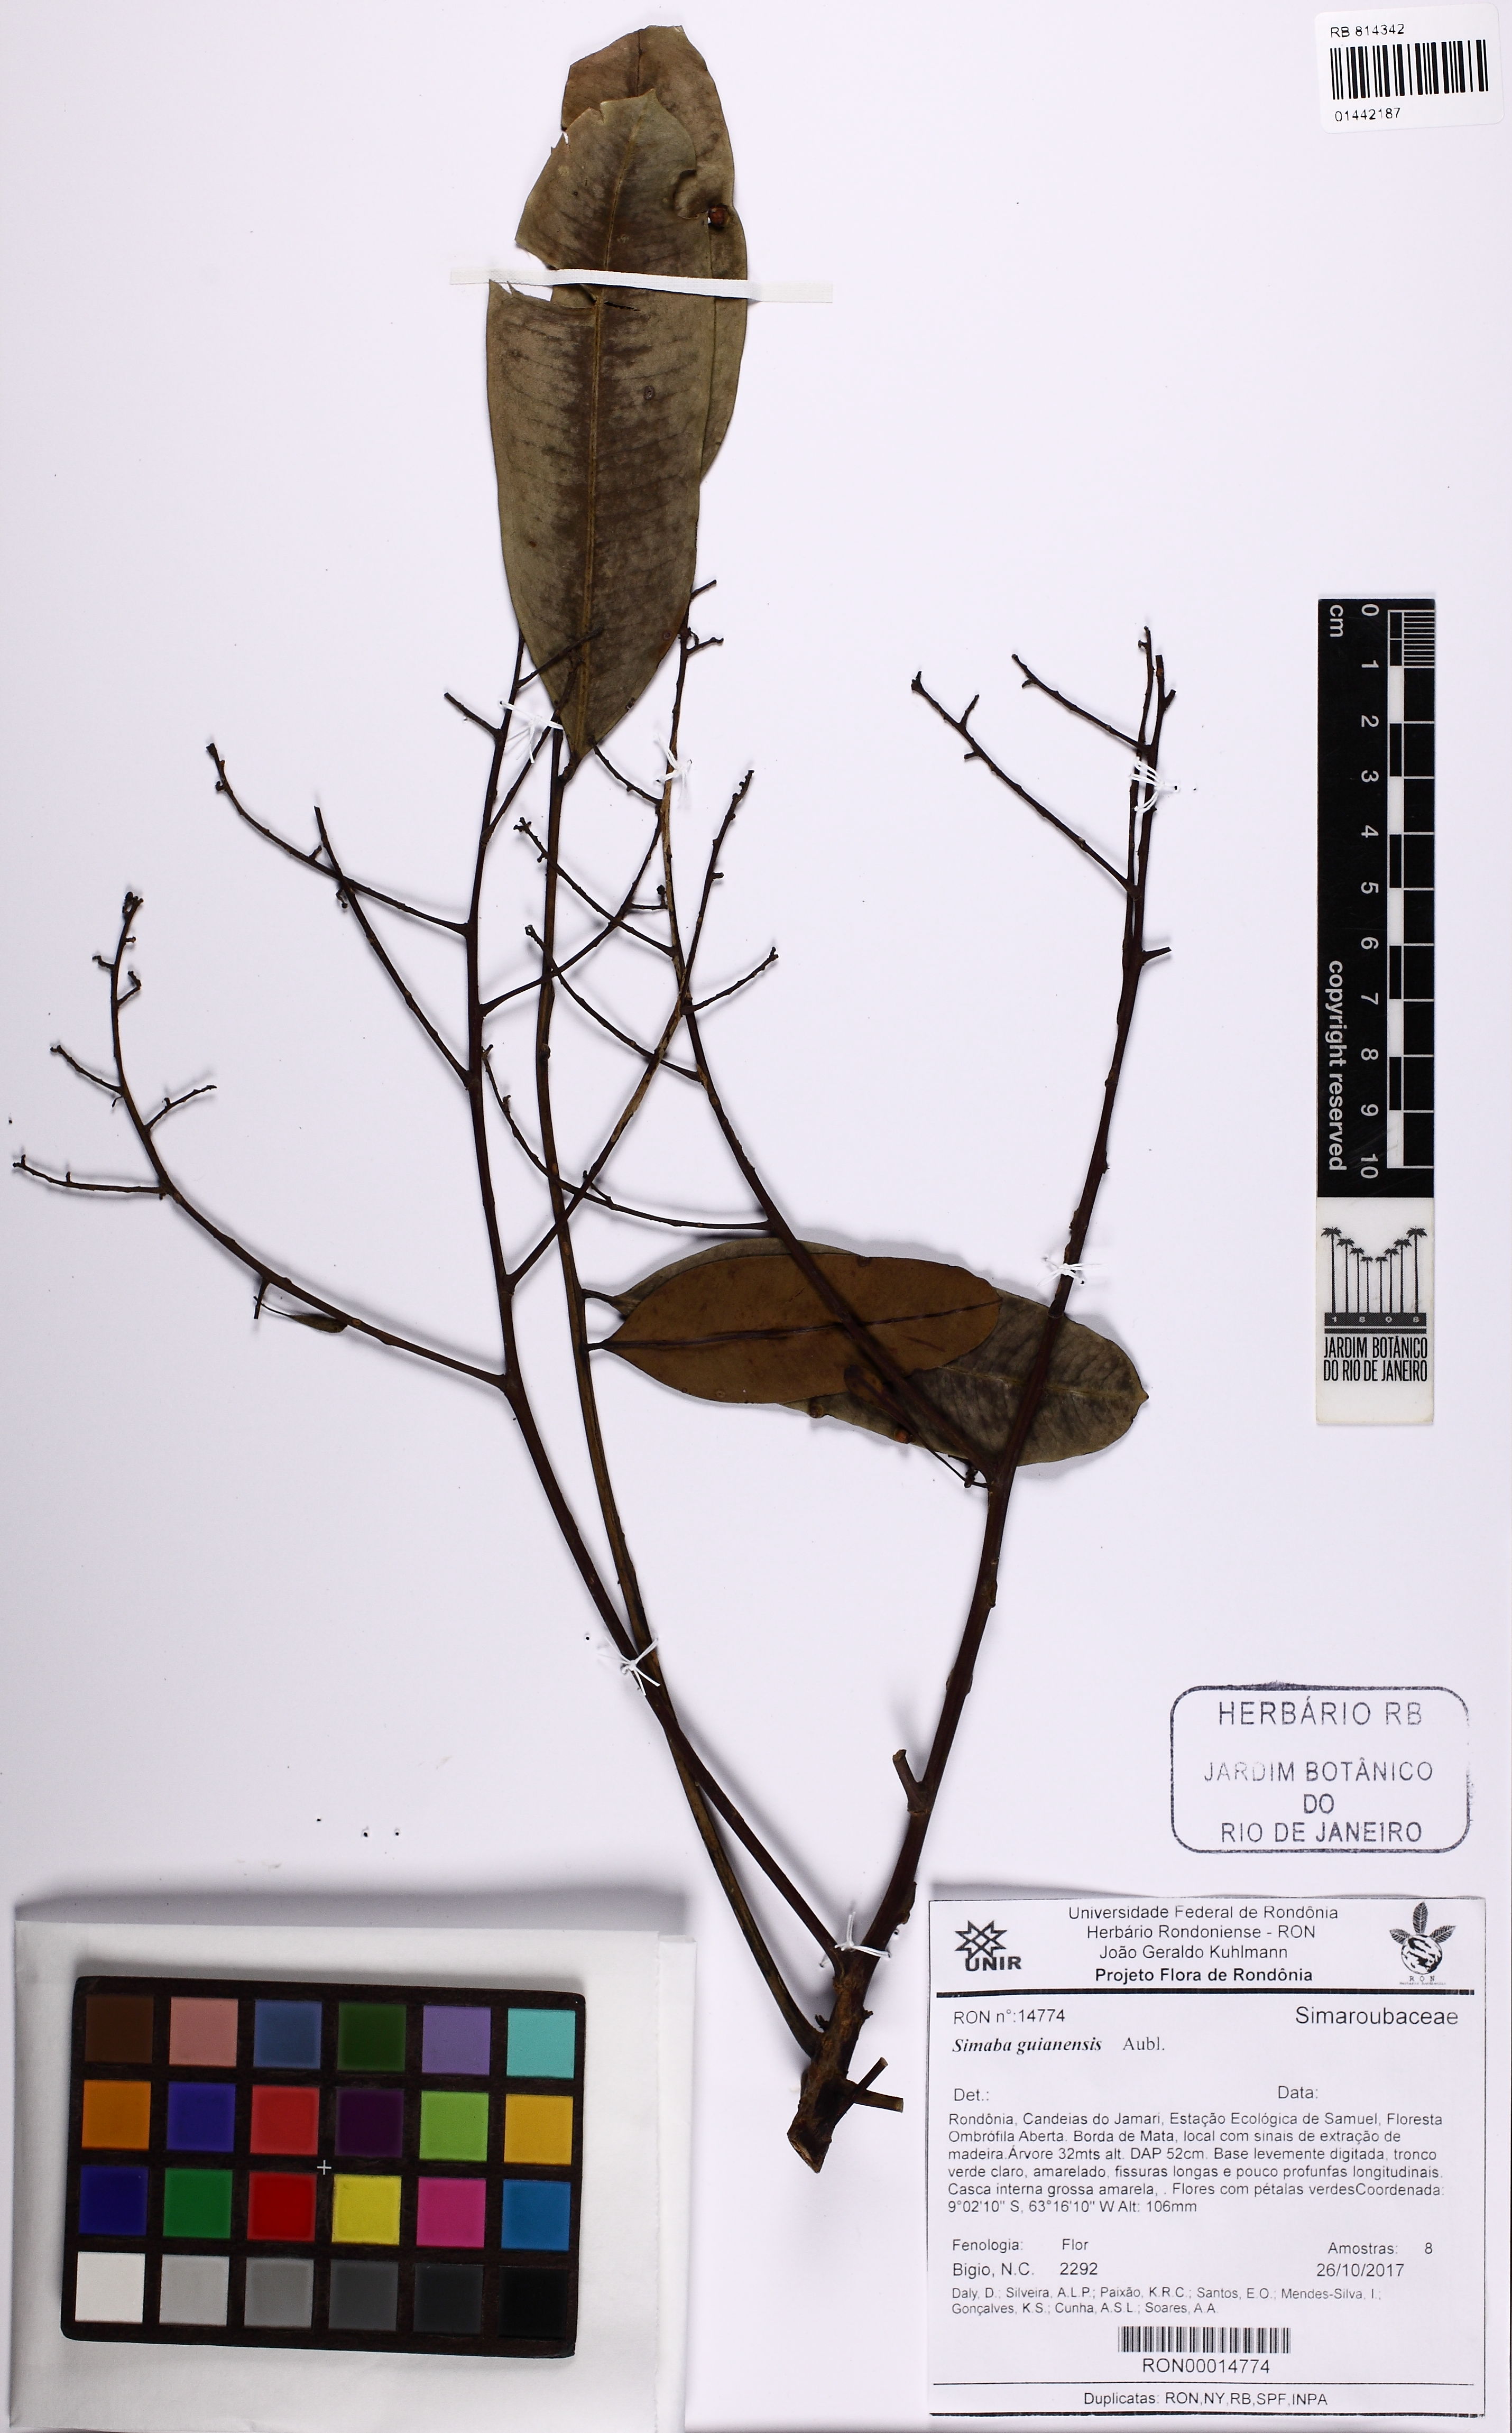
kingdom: Plantae
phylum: Tracheophyta
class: Magnoliopsida
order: Sapindales
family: Simaroubaceae
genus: Simaba
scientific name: Simaba guianensis
